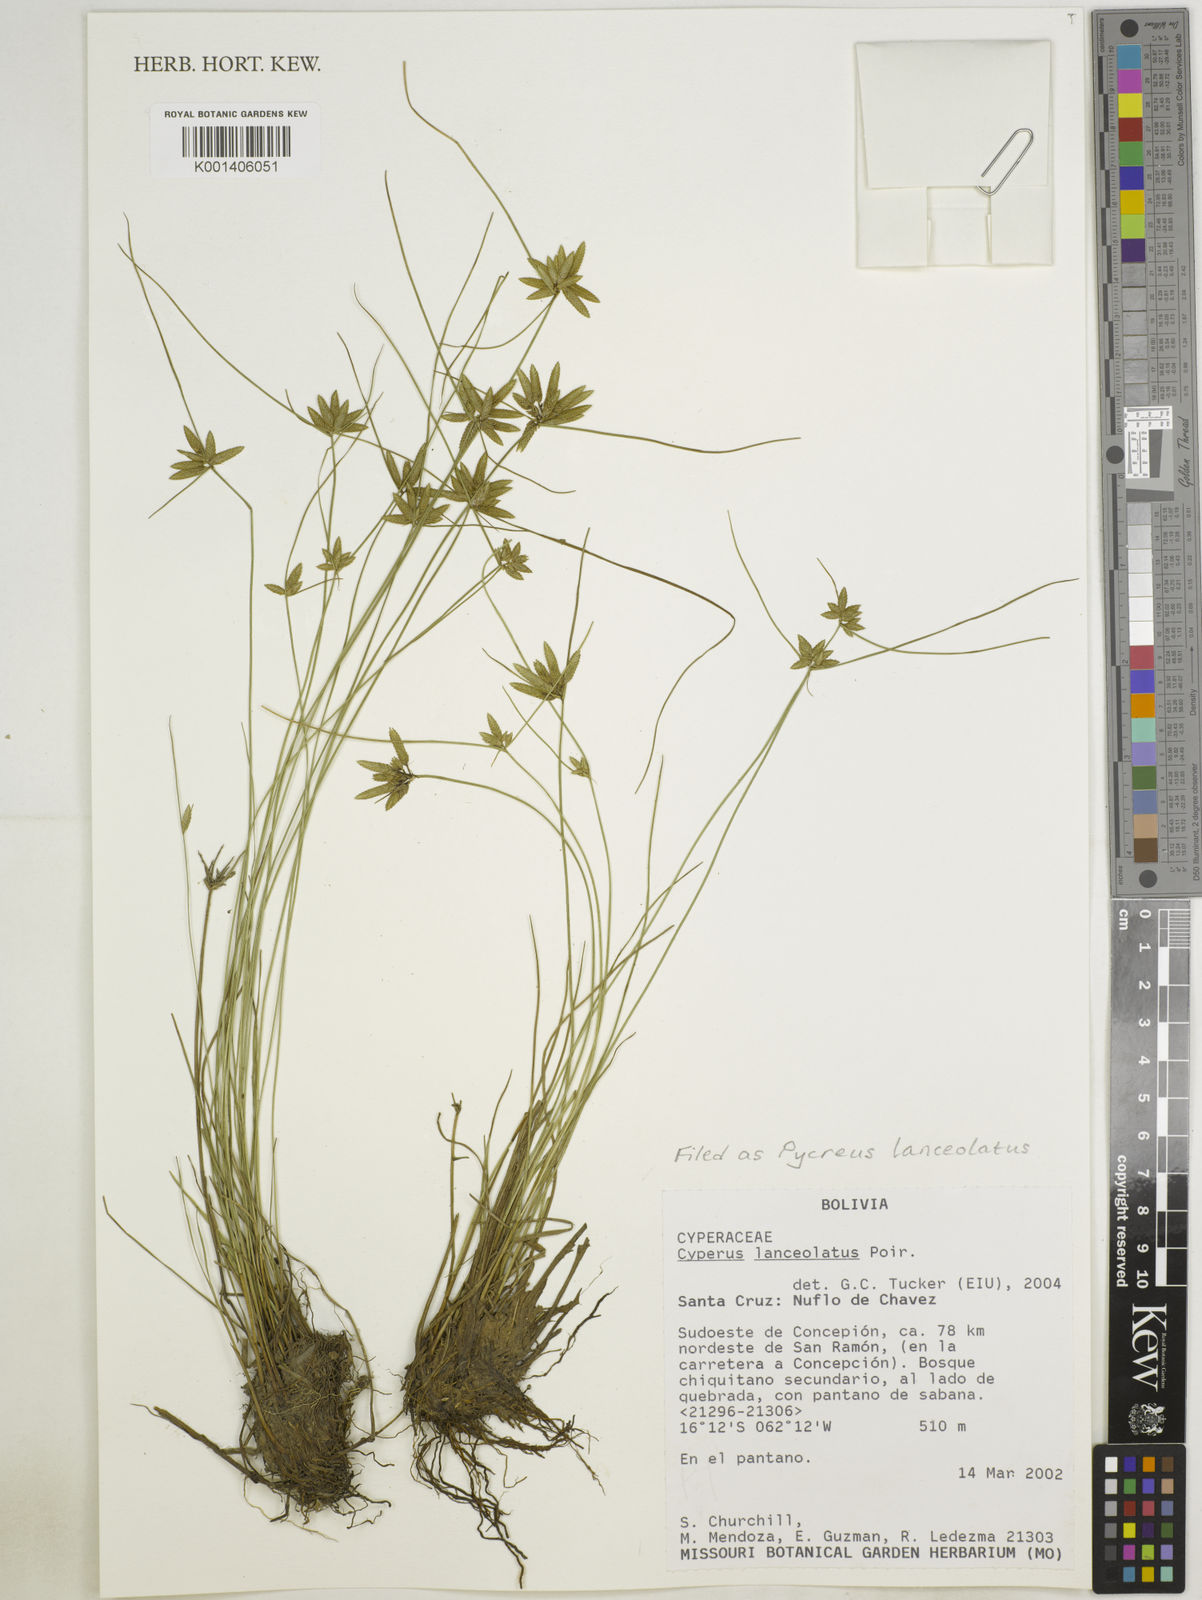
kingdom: Plantae
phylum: Tracheophyta
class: Liliopsida
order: Poales
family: Cyperaceae
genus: Cyperus
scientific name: Cyperus lanceolatus
